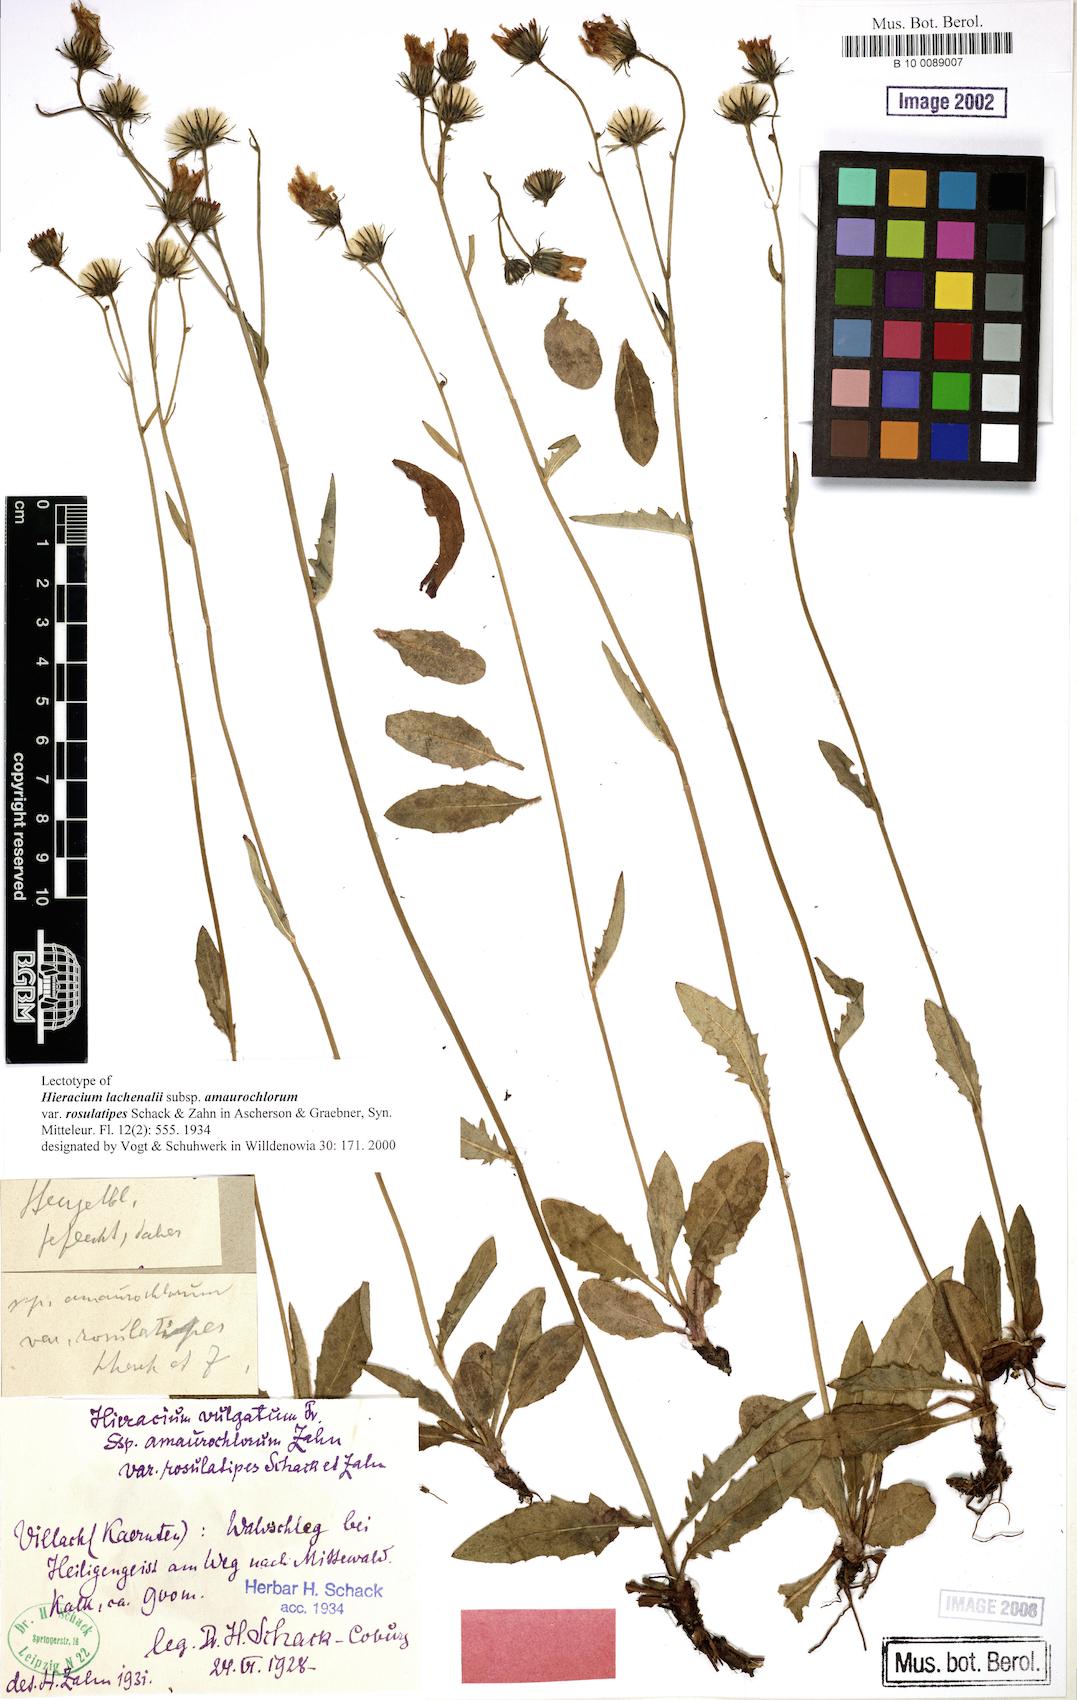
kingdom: Plantae
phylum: Tracheophyta
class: Magnoliopsida
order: Asterales
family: Asteraceae
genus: Hieracium
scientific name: Hieracium lachenalii
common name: Common hawkweed
